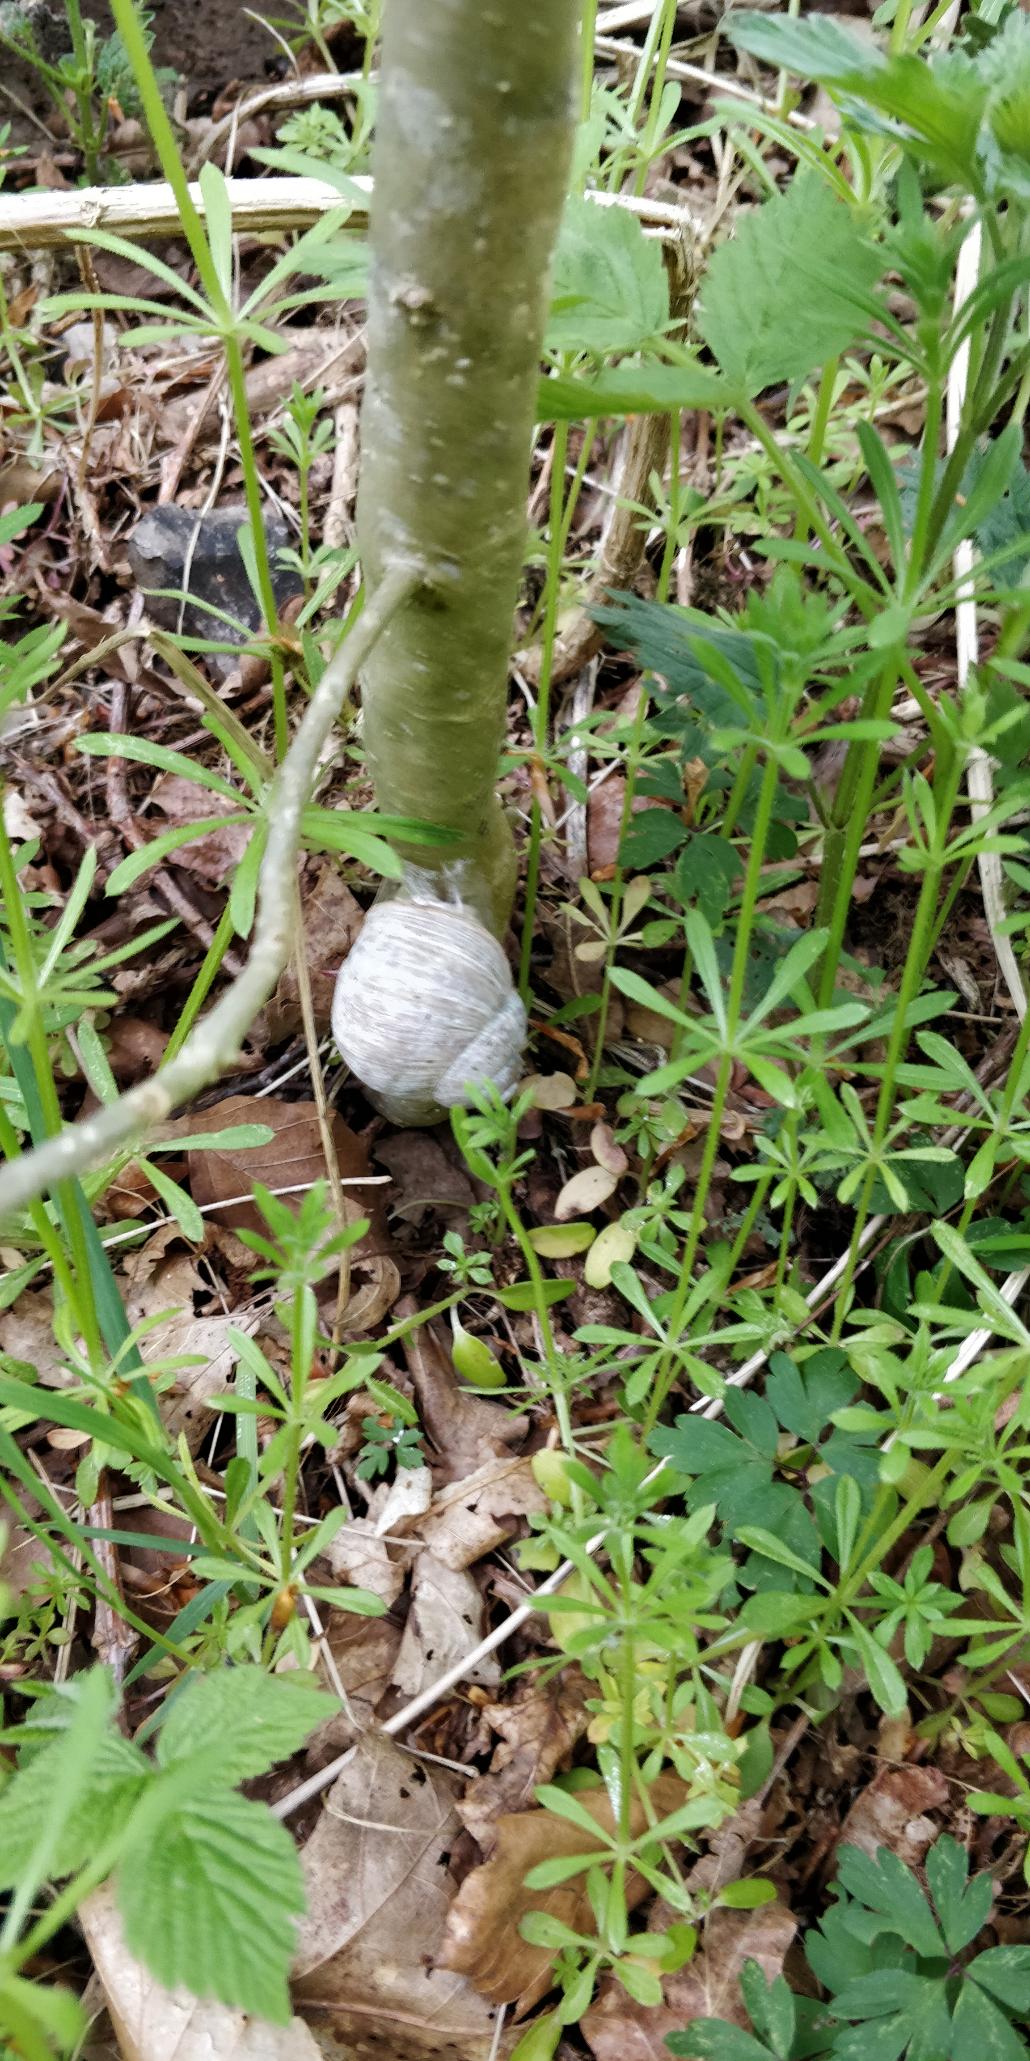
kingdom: Animalia
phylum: Mollusca
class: Gastropoda
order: Stylommatophora
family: Helicidae
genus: Helix
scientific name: Helix pomatia
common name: Vinbjergsnegl
